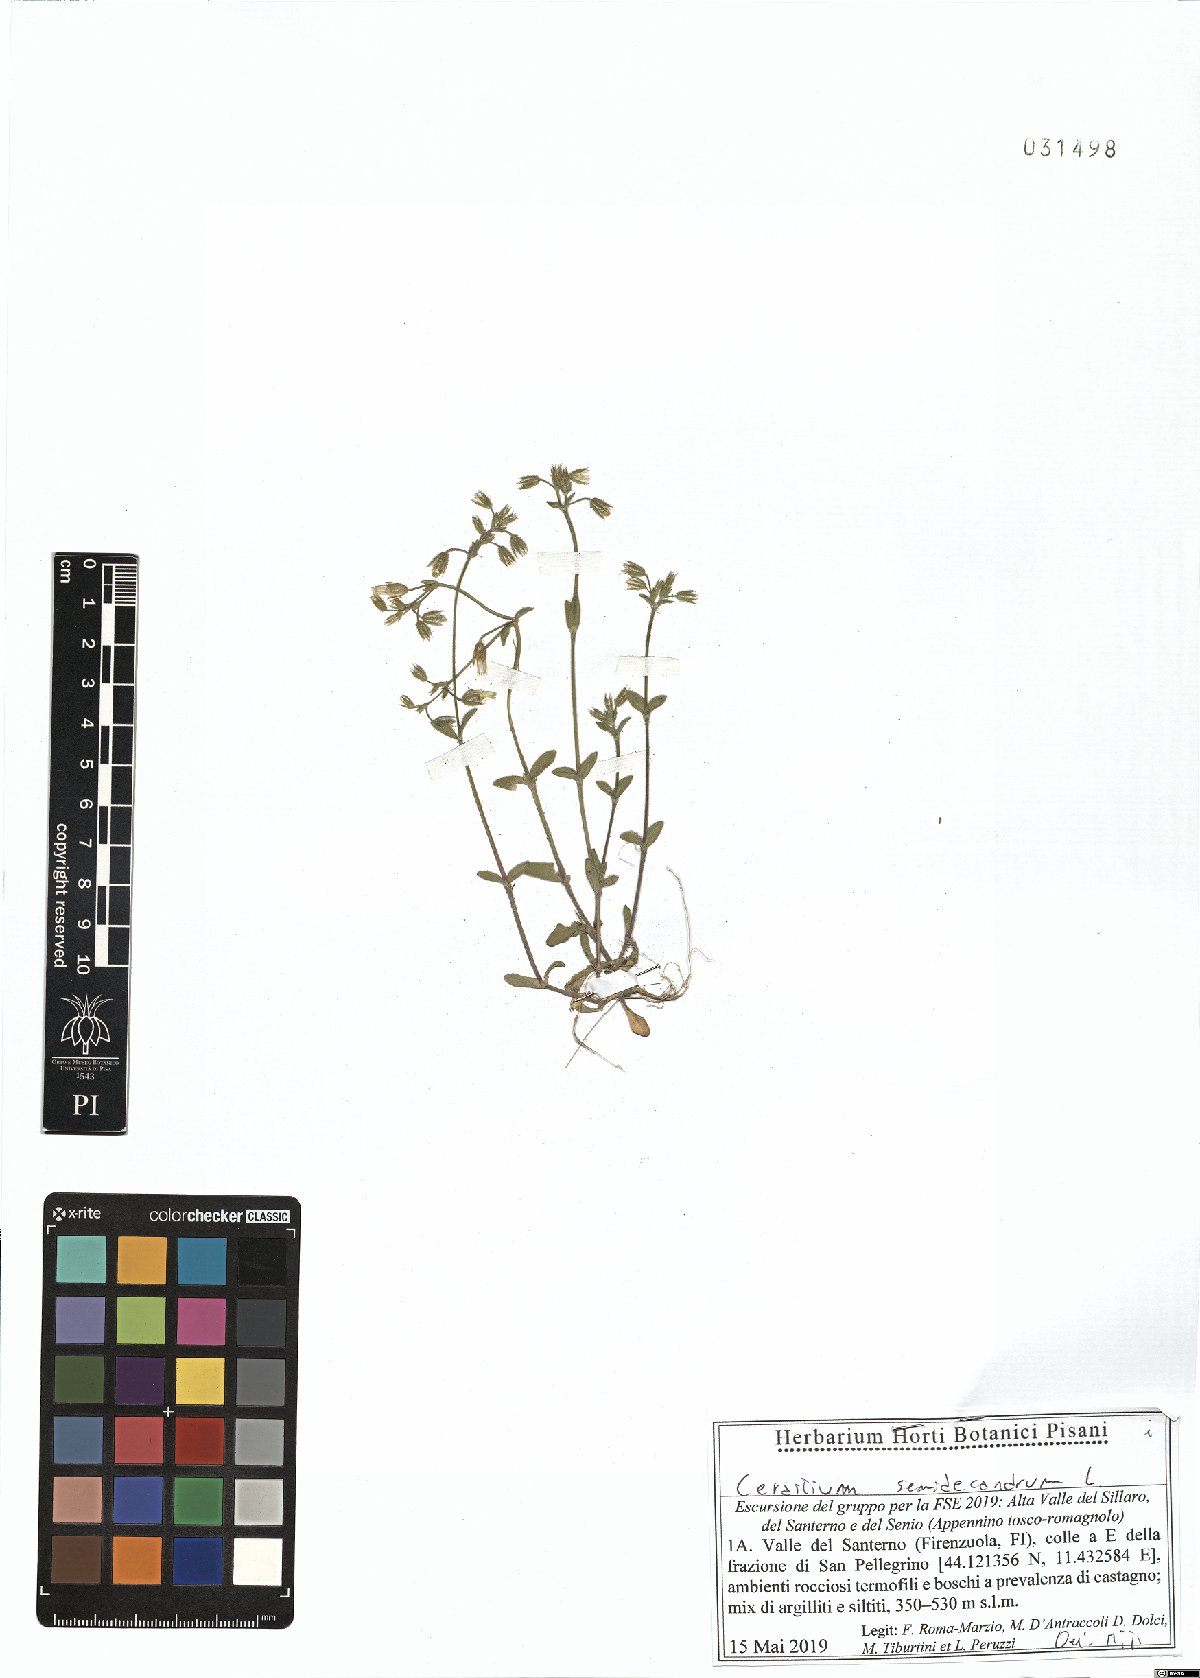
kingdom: Plantae
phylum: Tracheophyta
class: Magnoliopsida
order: Caryophyllales
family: Caryophyllaceae
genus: Cerastium
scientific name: Cerastium semidecandrum
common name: Little mouse-ear
